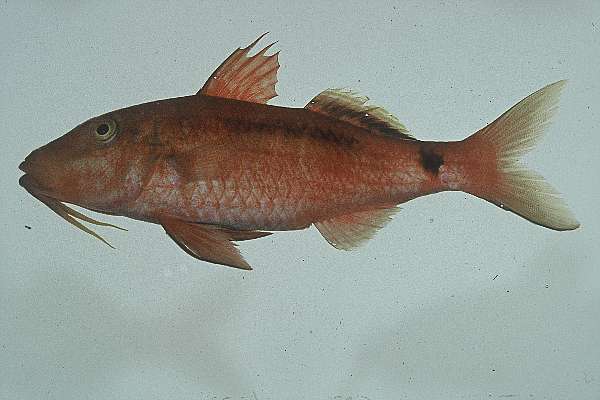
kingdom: Animalia
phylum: Chordata
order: Perciformes
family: Mullidae
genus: Parupeneus
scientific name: Parupeneus macronemus
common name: Long-barbel goatfish
